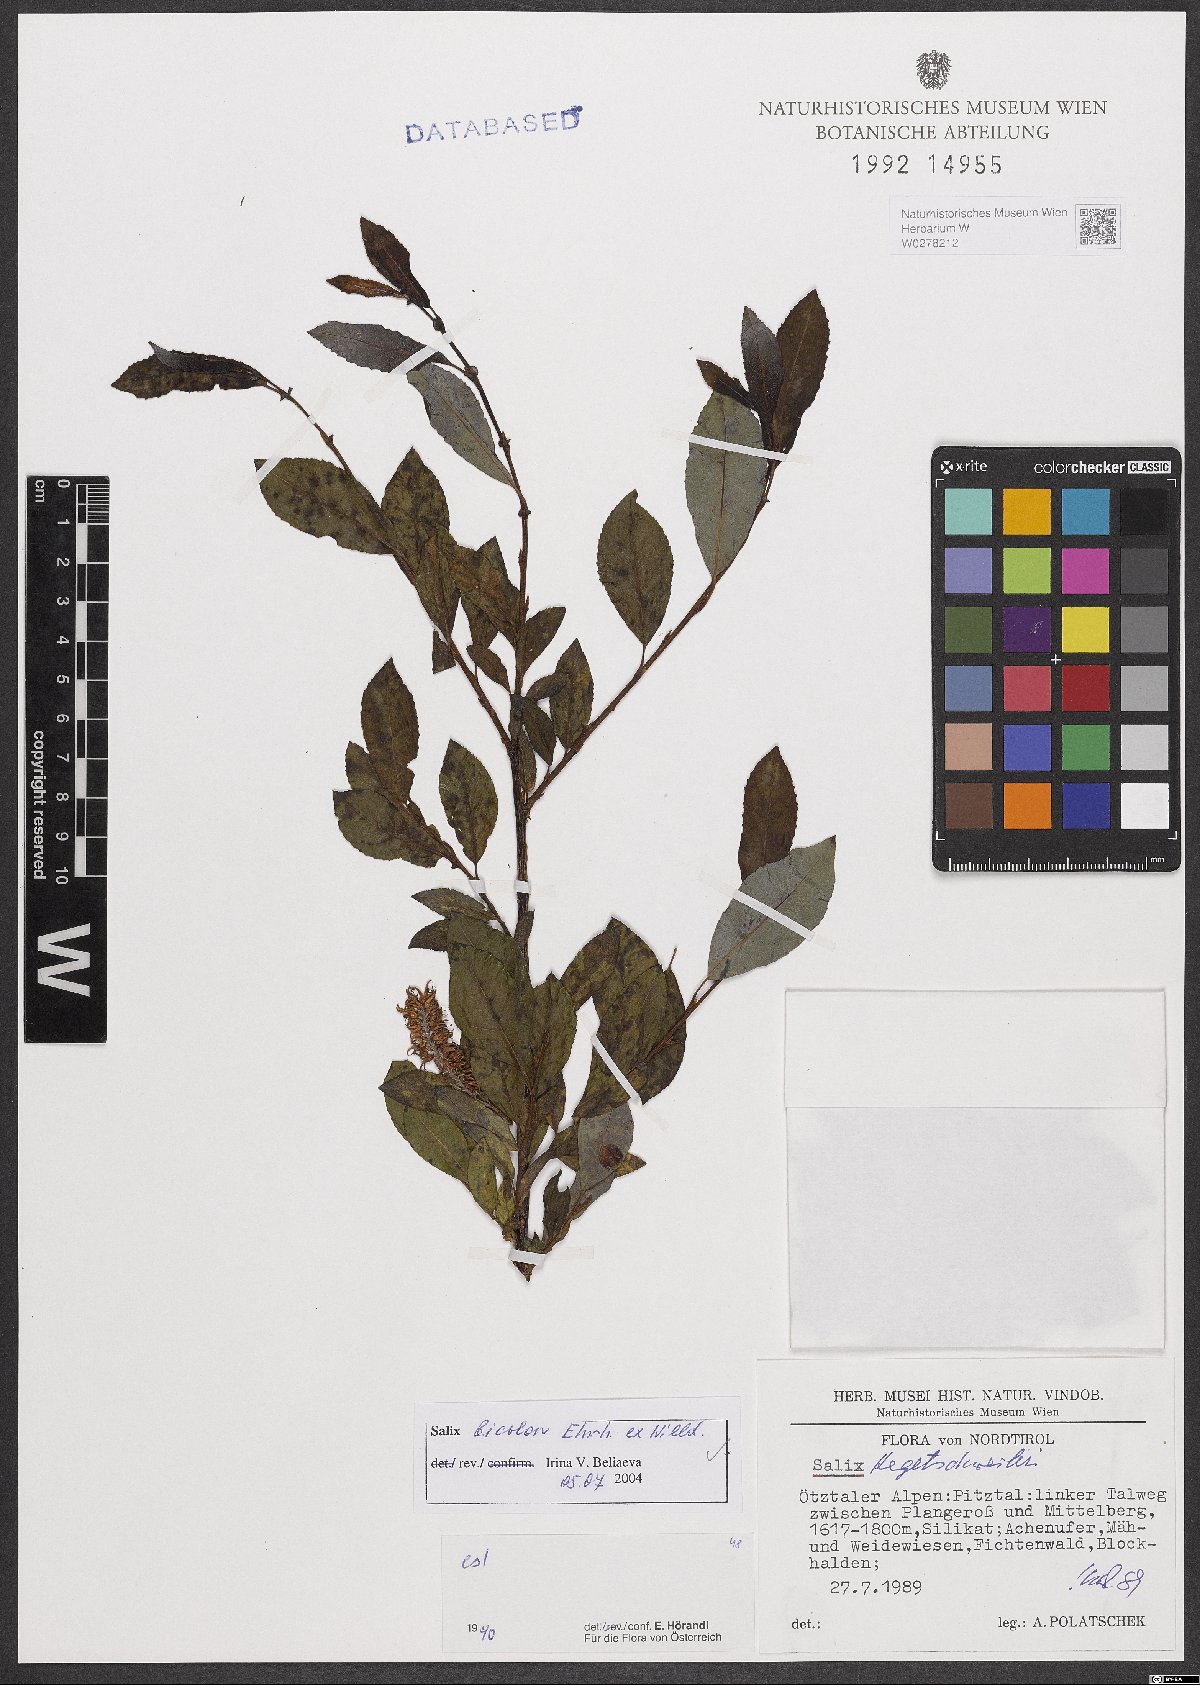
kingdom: Plantae
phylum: Tracheophyta
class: Magnoliopsida
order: Malpighiales
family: Salicaceae
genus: Salix
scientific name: Salix bicolor
